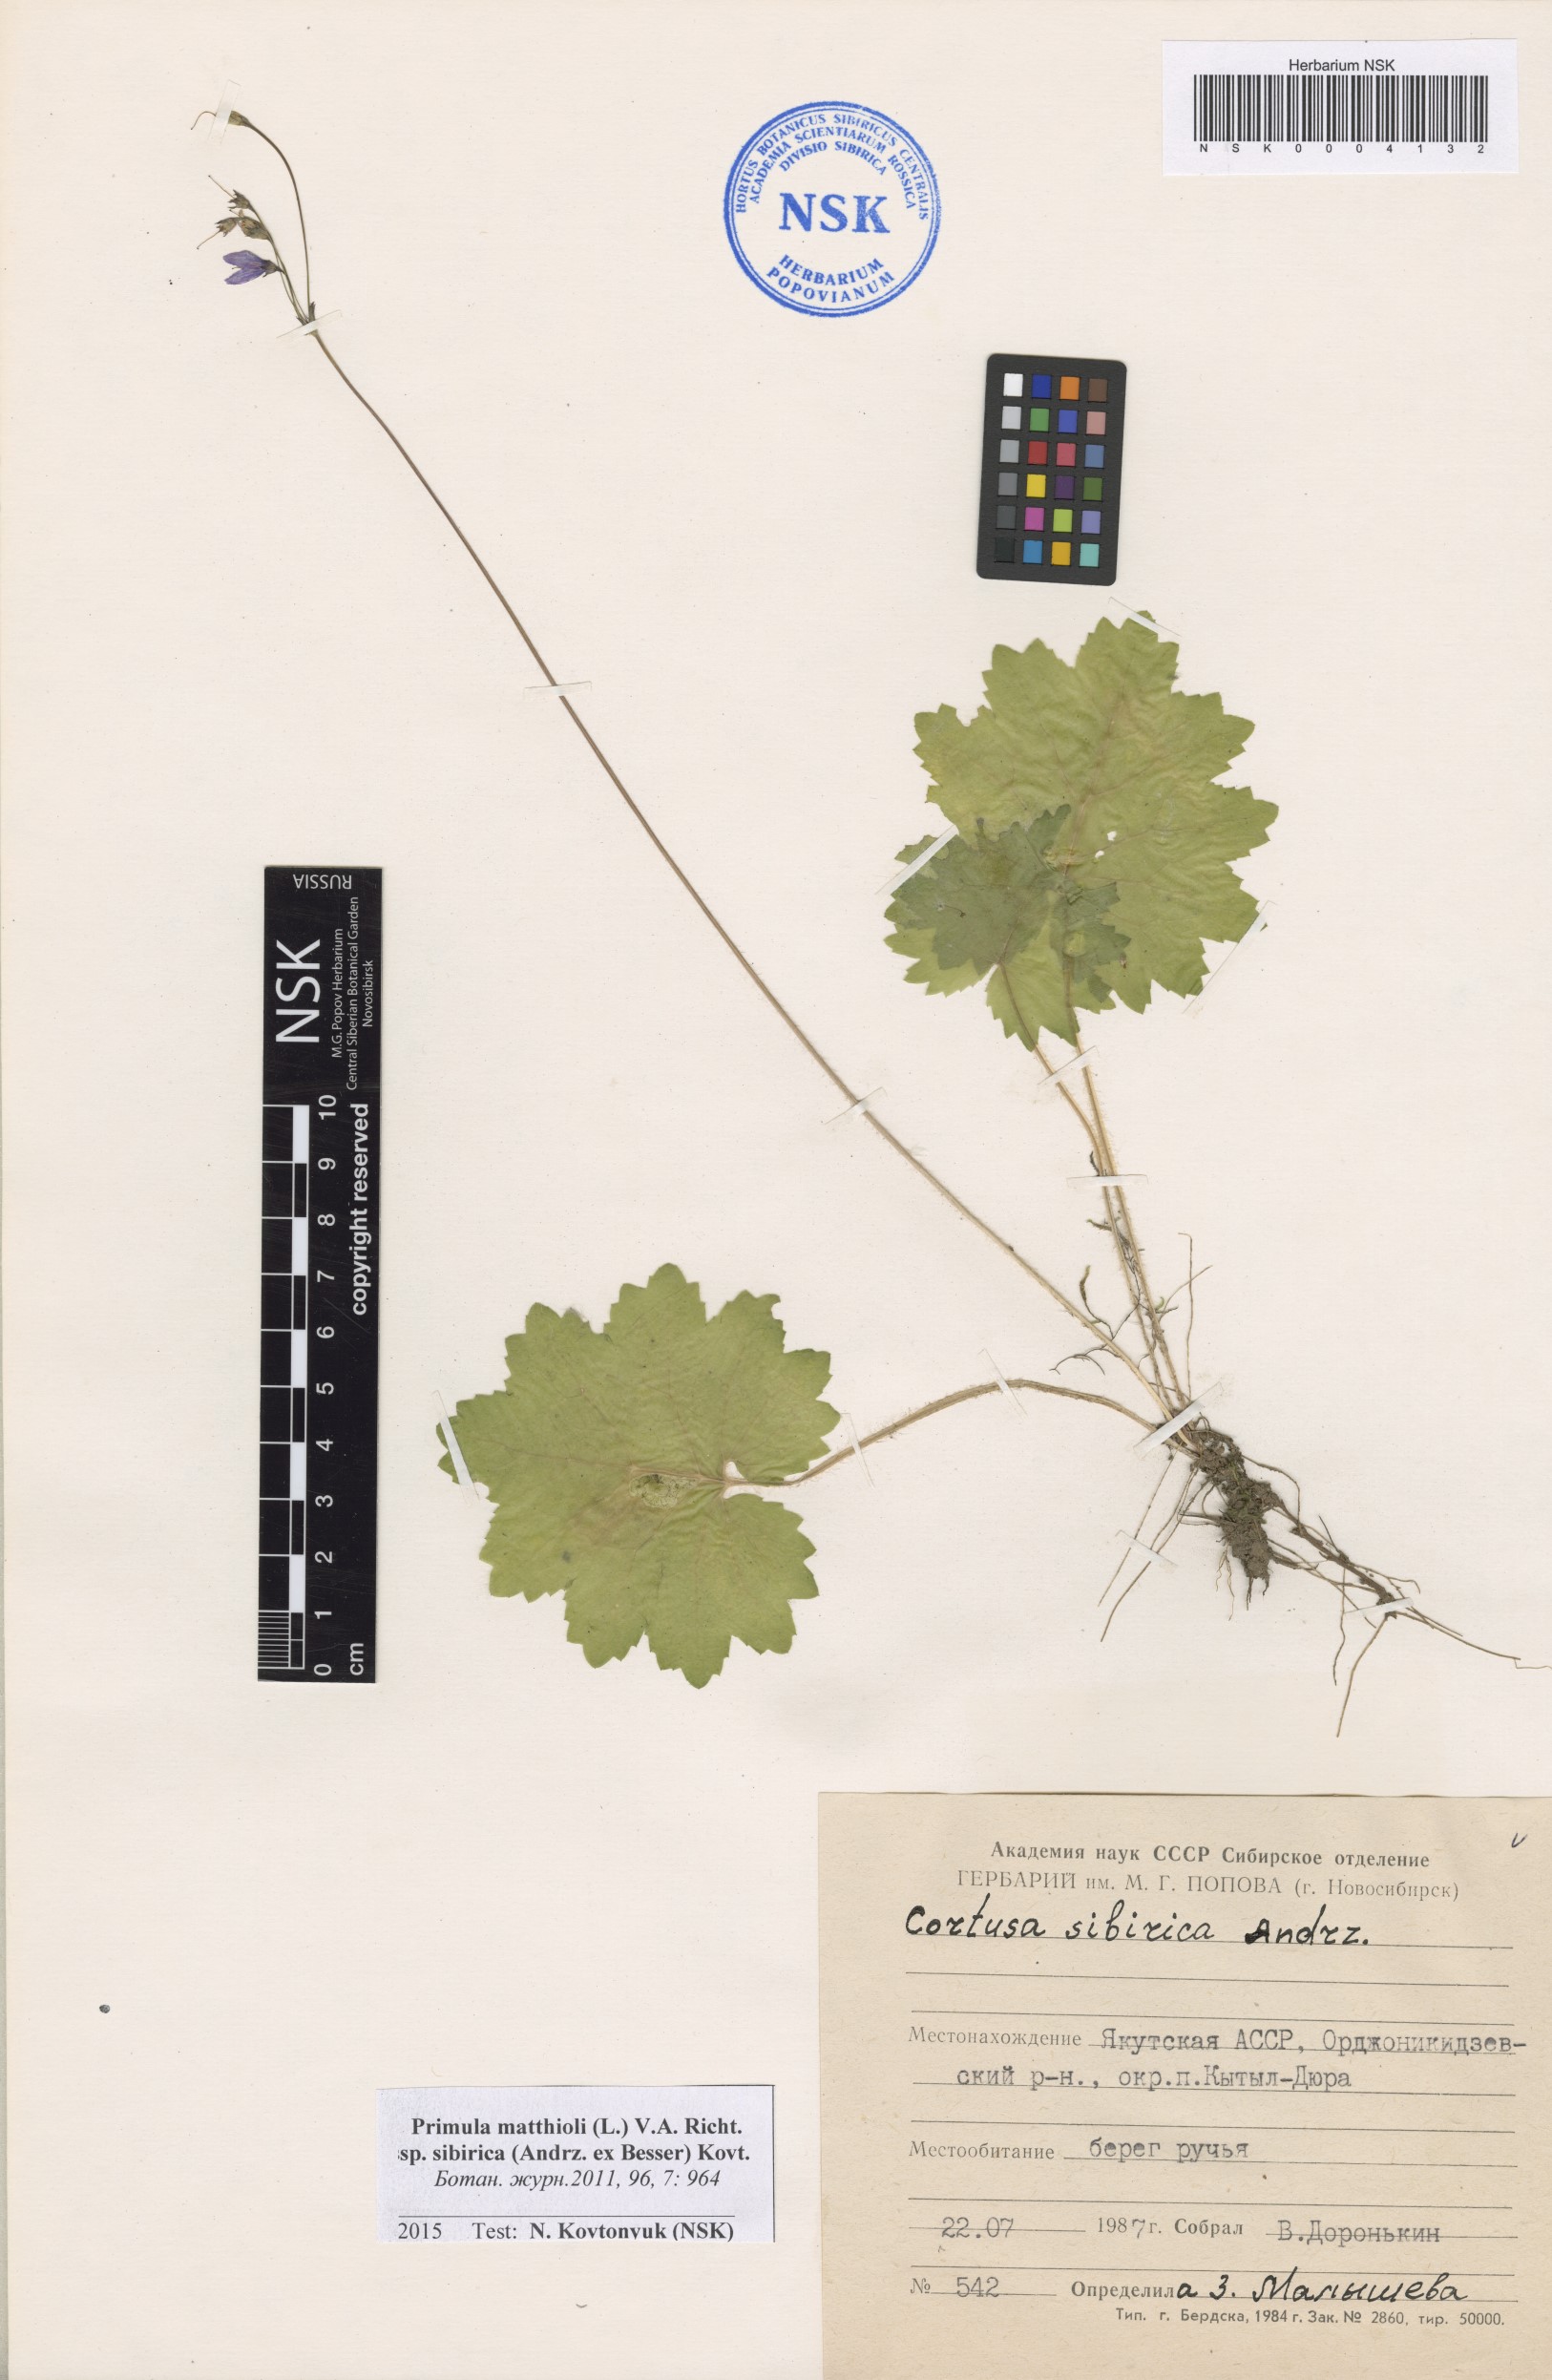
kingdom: Plantae
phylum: Tracheophyta
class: Magnoliopsida
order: Ericales
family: Primulaceae
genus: Primula
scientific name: Primula matthioli
